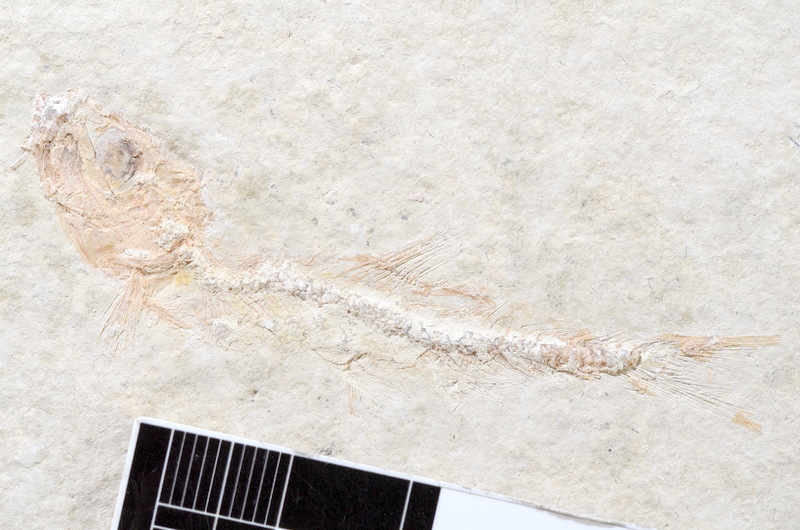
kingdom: Animalia
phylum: Chordata
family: Ascalaboidae
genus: Tharsis
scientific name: Tharsis dubius
